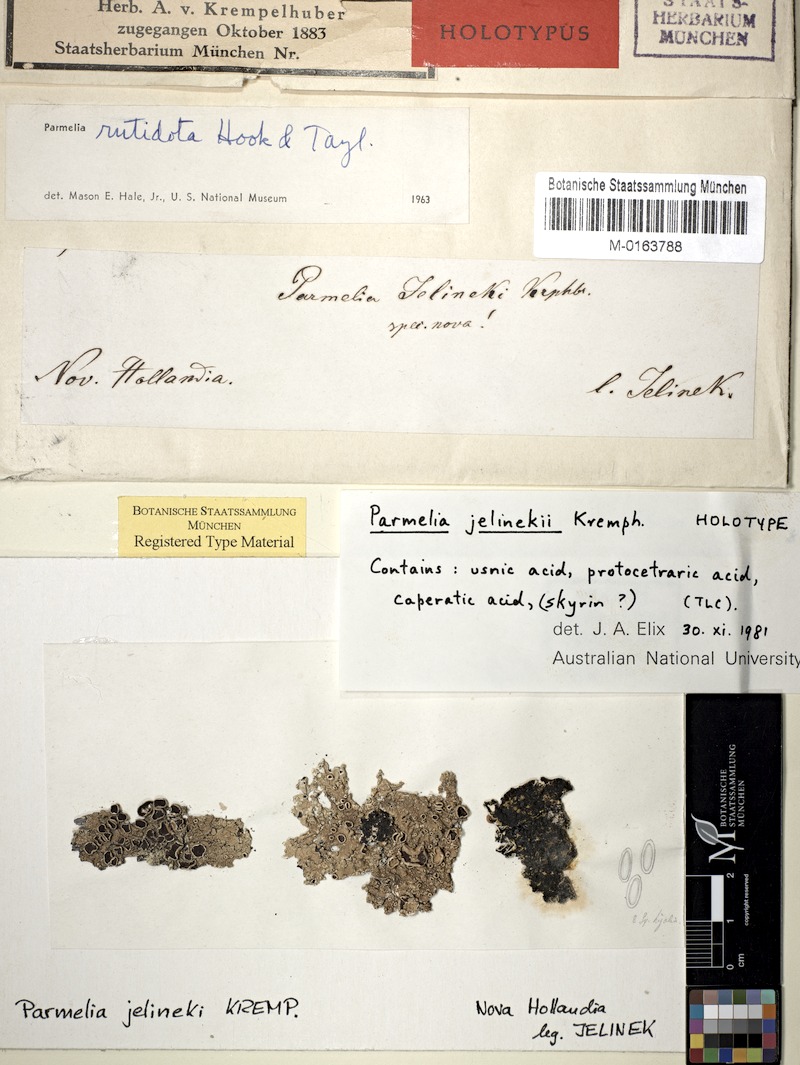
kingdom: Fungi
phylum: Ascomycota
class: Lecanoromycetes
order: Lecanorales
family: Parmeliaceae
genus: Flavoparmelia
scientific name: Flavoparmelia rutidota
